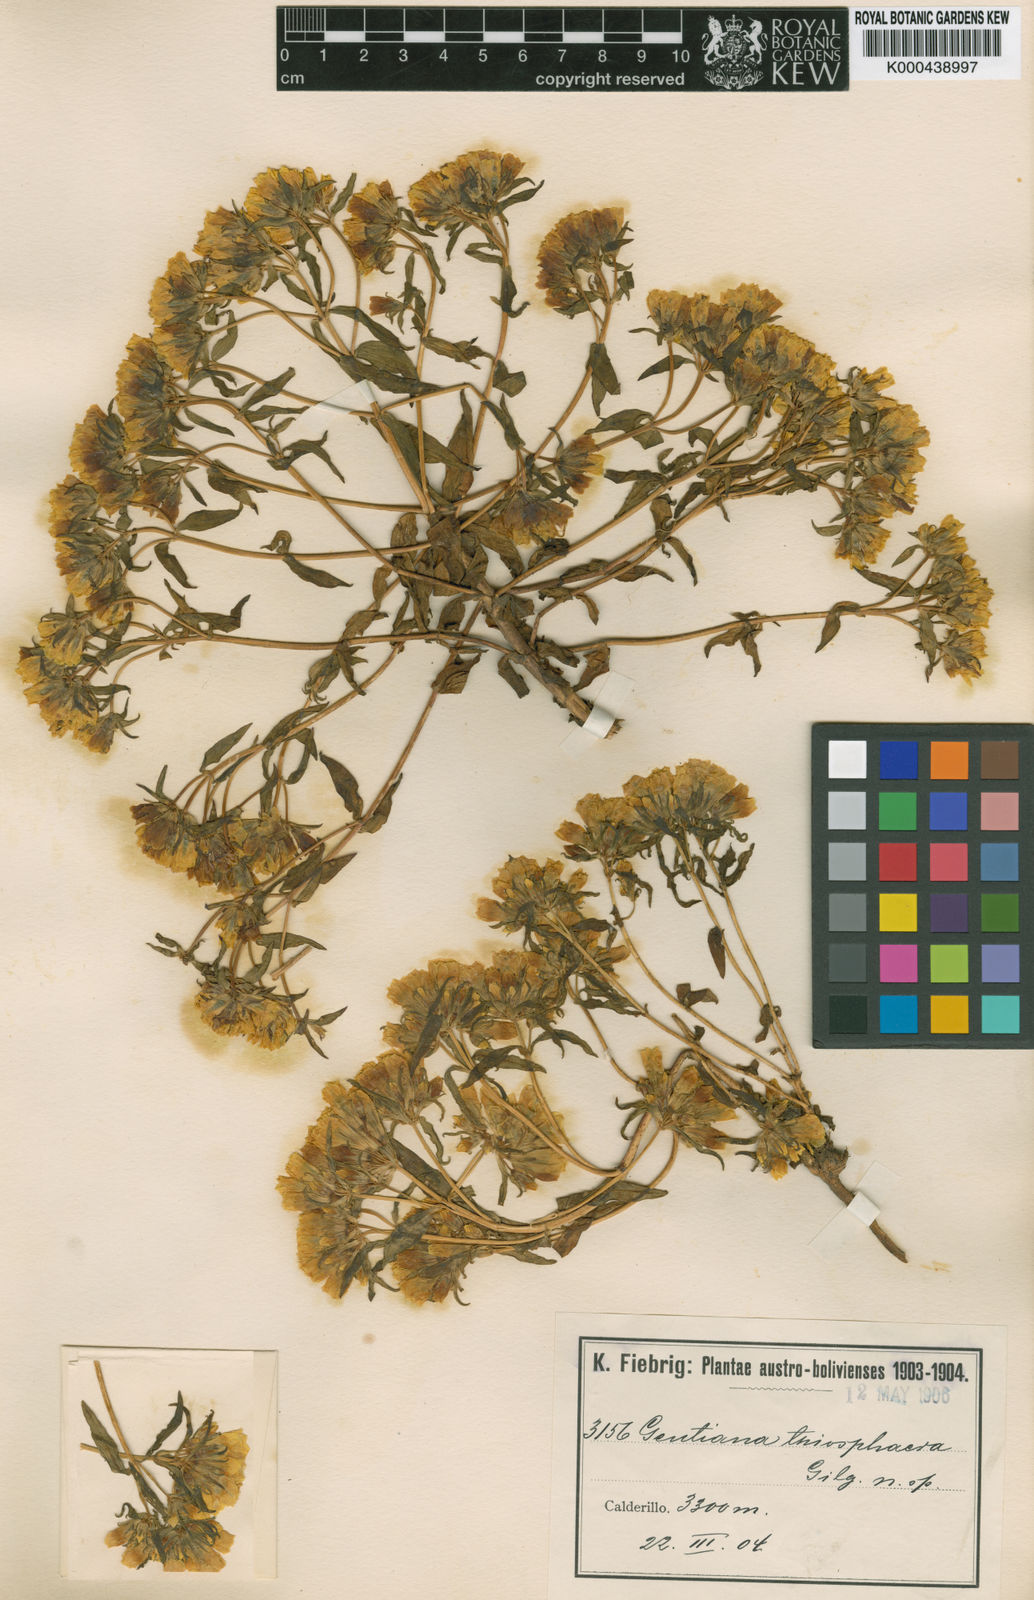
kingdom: Plantae
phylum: Tracheophyta
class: Magnoliopsida
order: Gentianales
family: Gentianaceae
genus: Gentianella
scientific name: Gentianella thiosphaera
